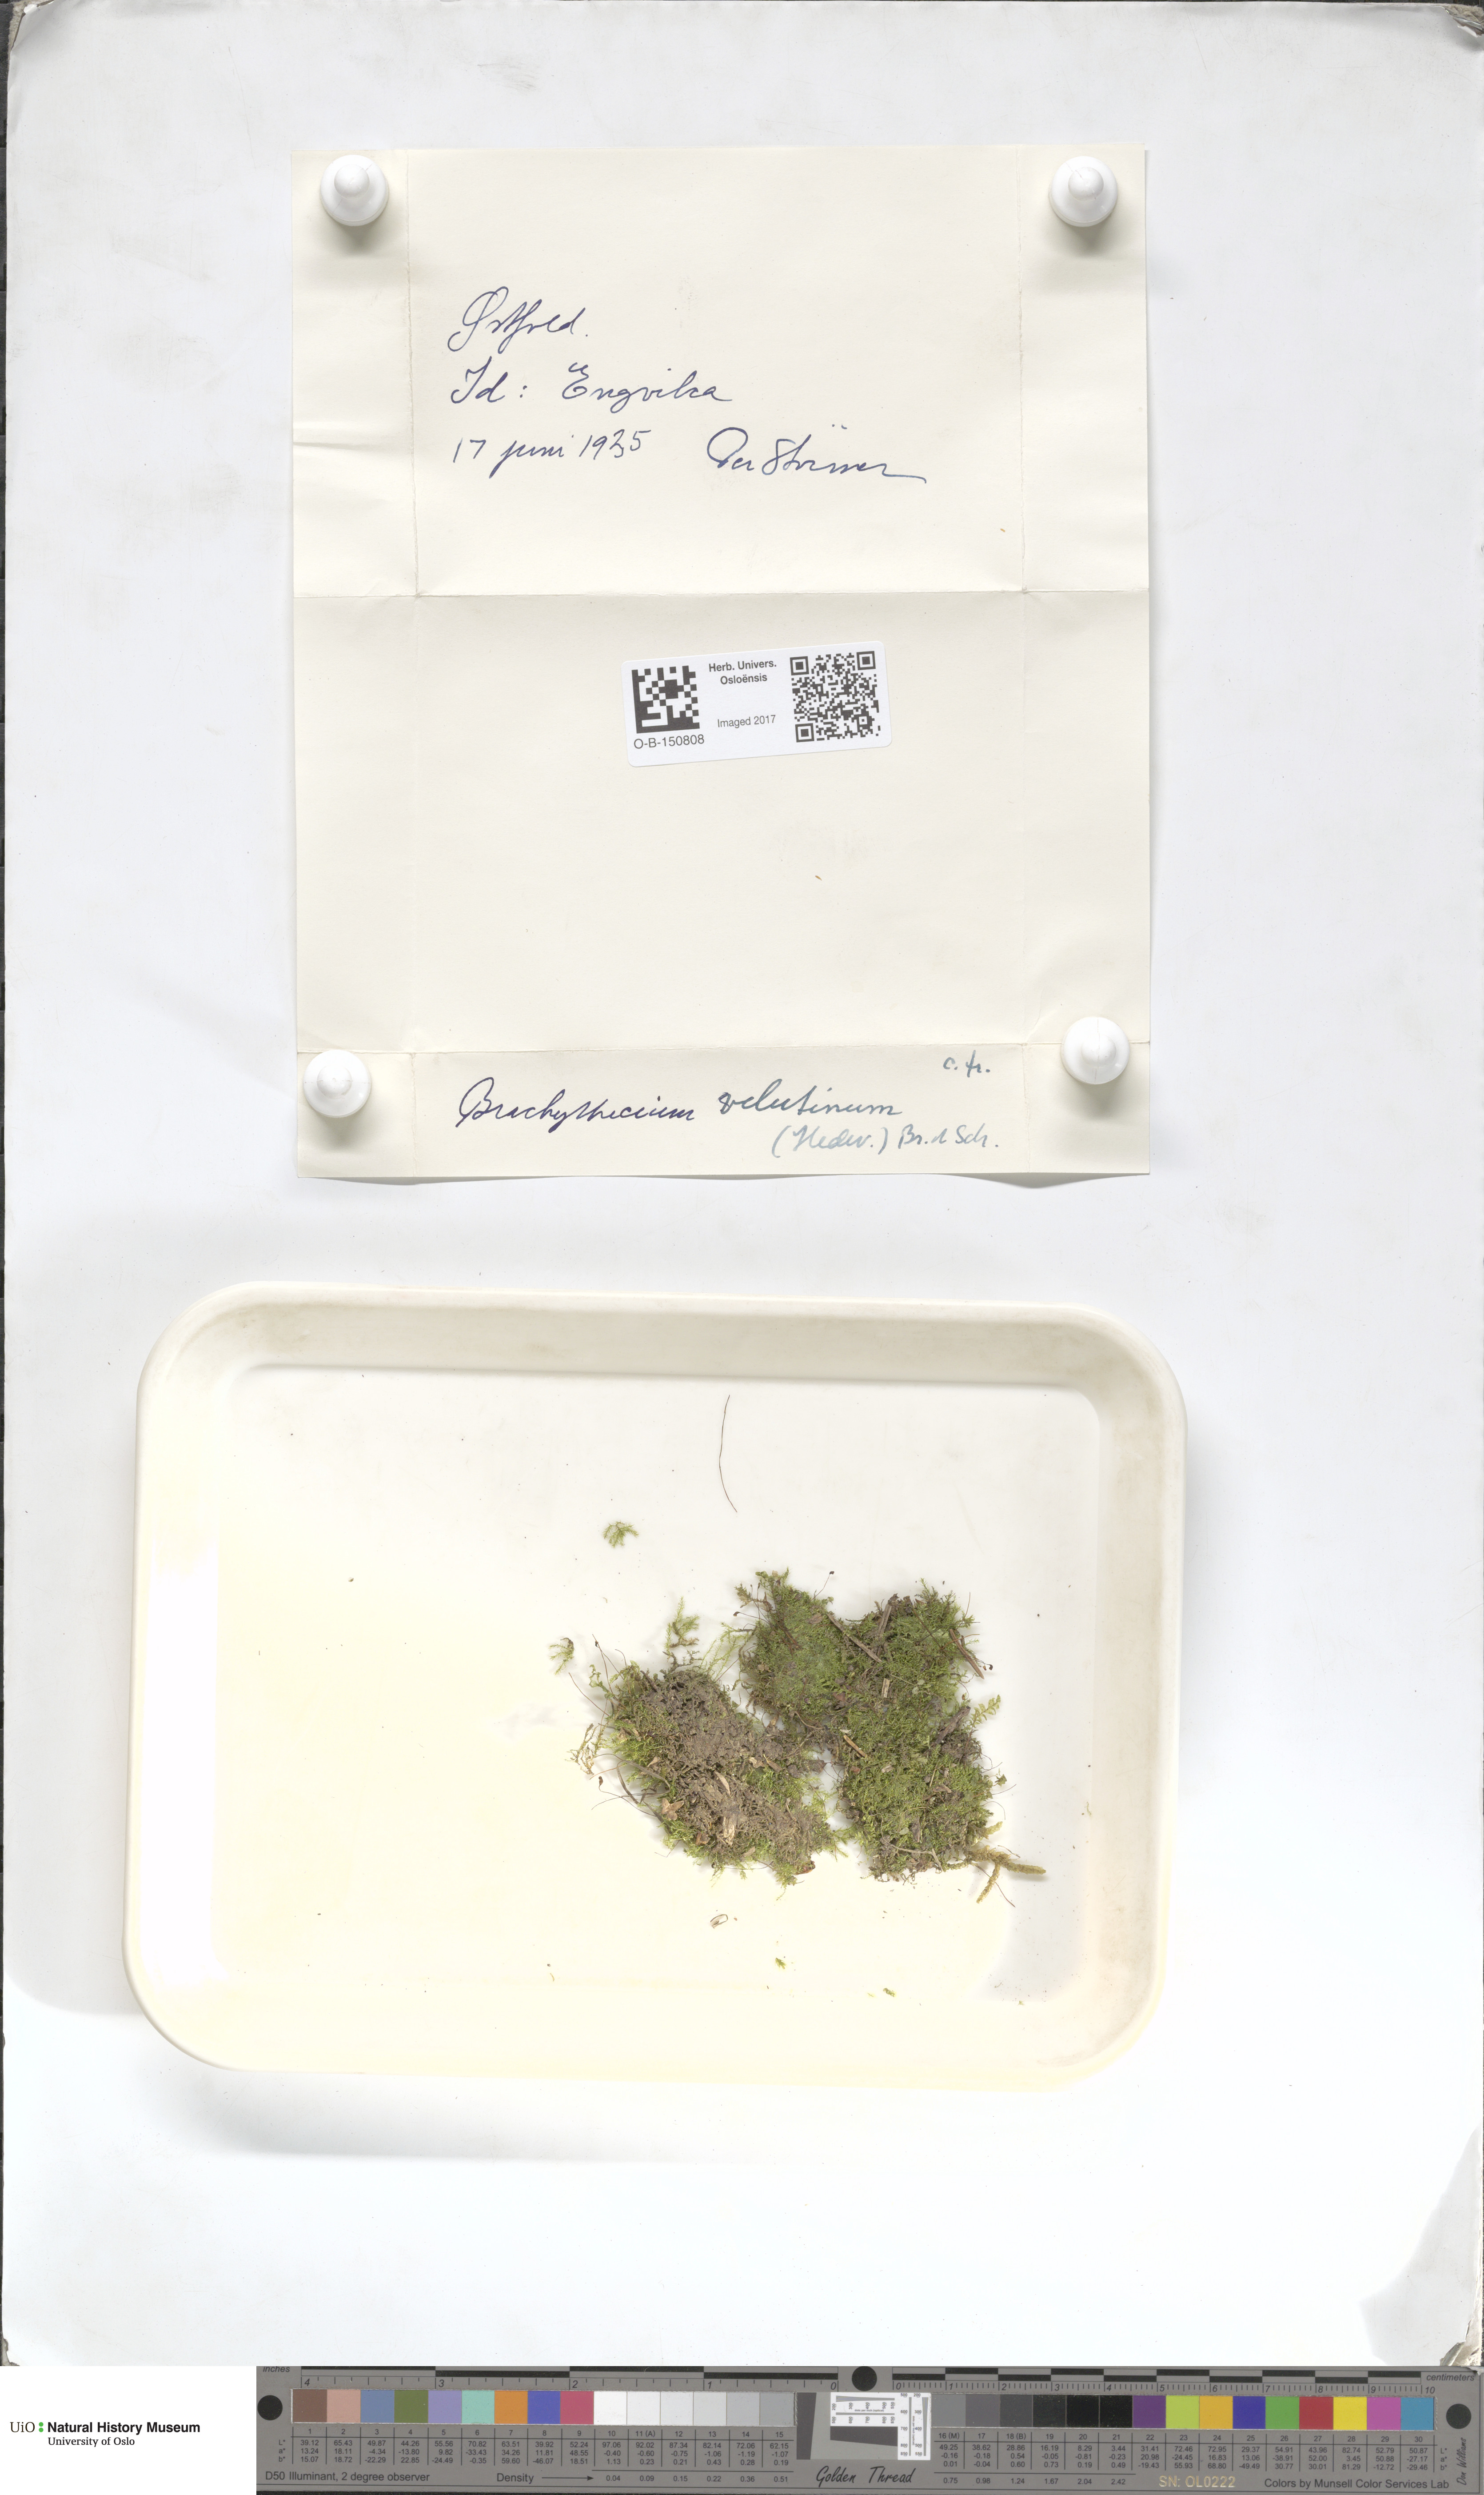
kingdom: Plantae
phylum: Bryophyta
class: Bryopsida
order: Hypnales
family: Brachytheciaceae
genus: Brachytheciastrum
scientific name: Brachytheciastrum velutinum
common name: Velvet feather-moss
